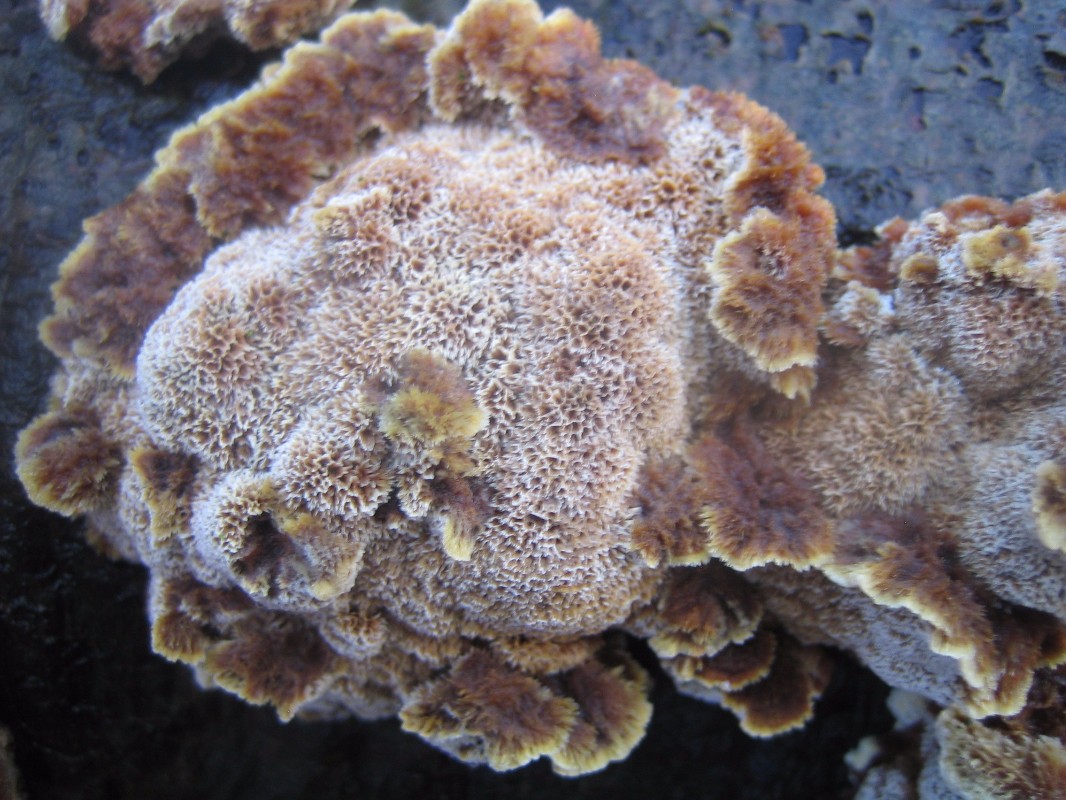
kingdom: Fungi
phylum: Basidiomycota
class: Agaricomycetes
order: Hymenochaetales
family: Hymenochaetaceae
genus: Mensularia
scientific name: Mensularia nodulosa
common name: bøge-spejlporesvamp
